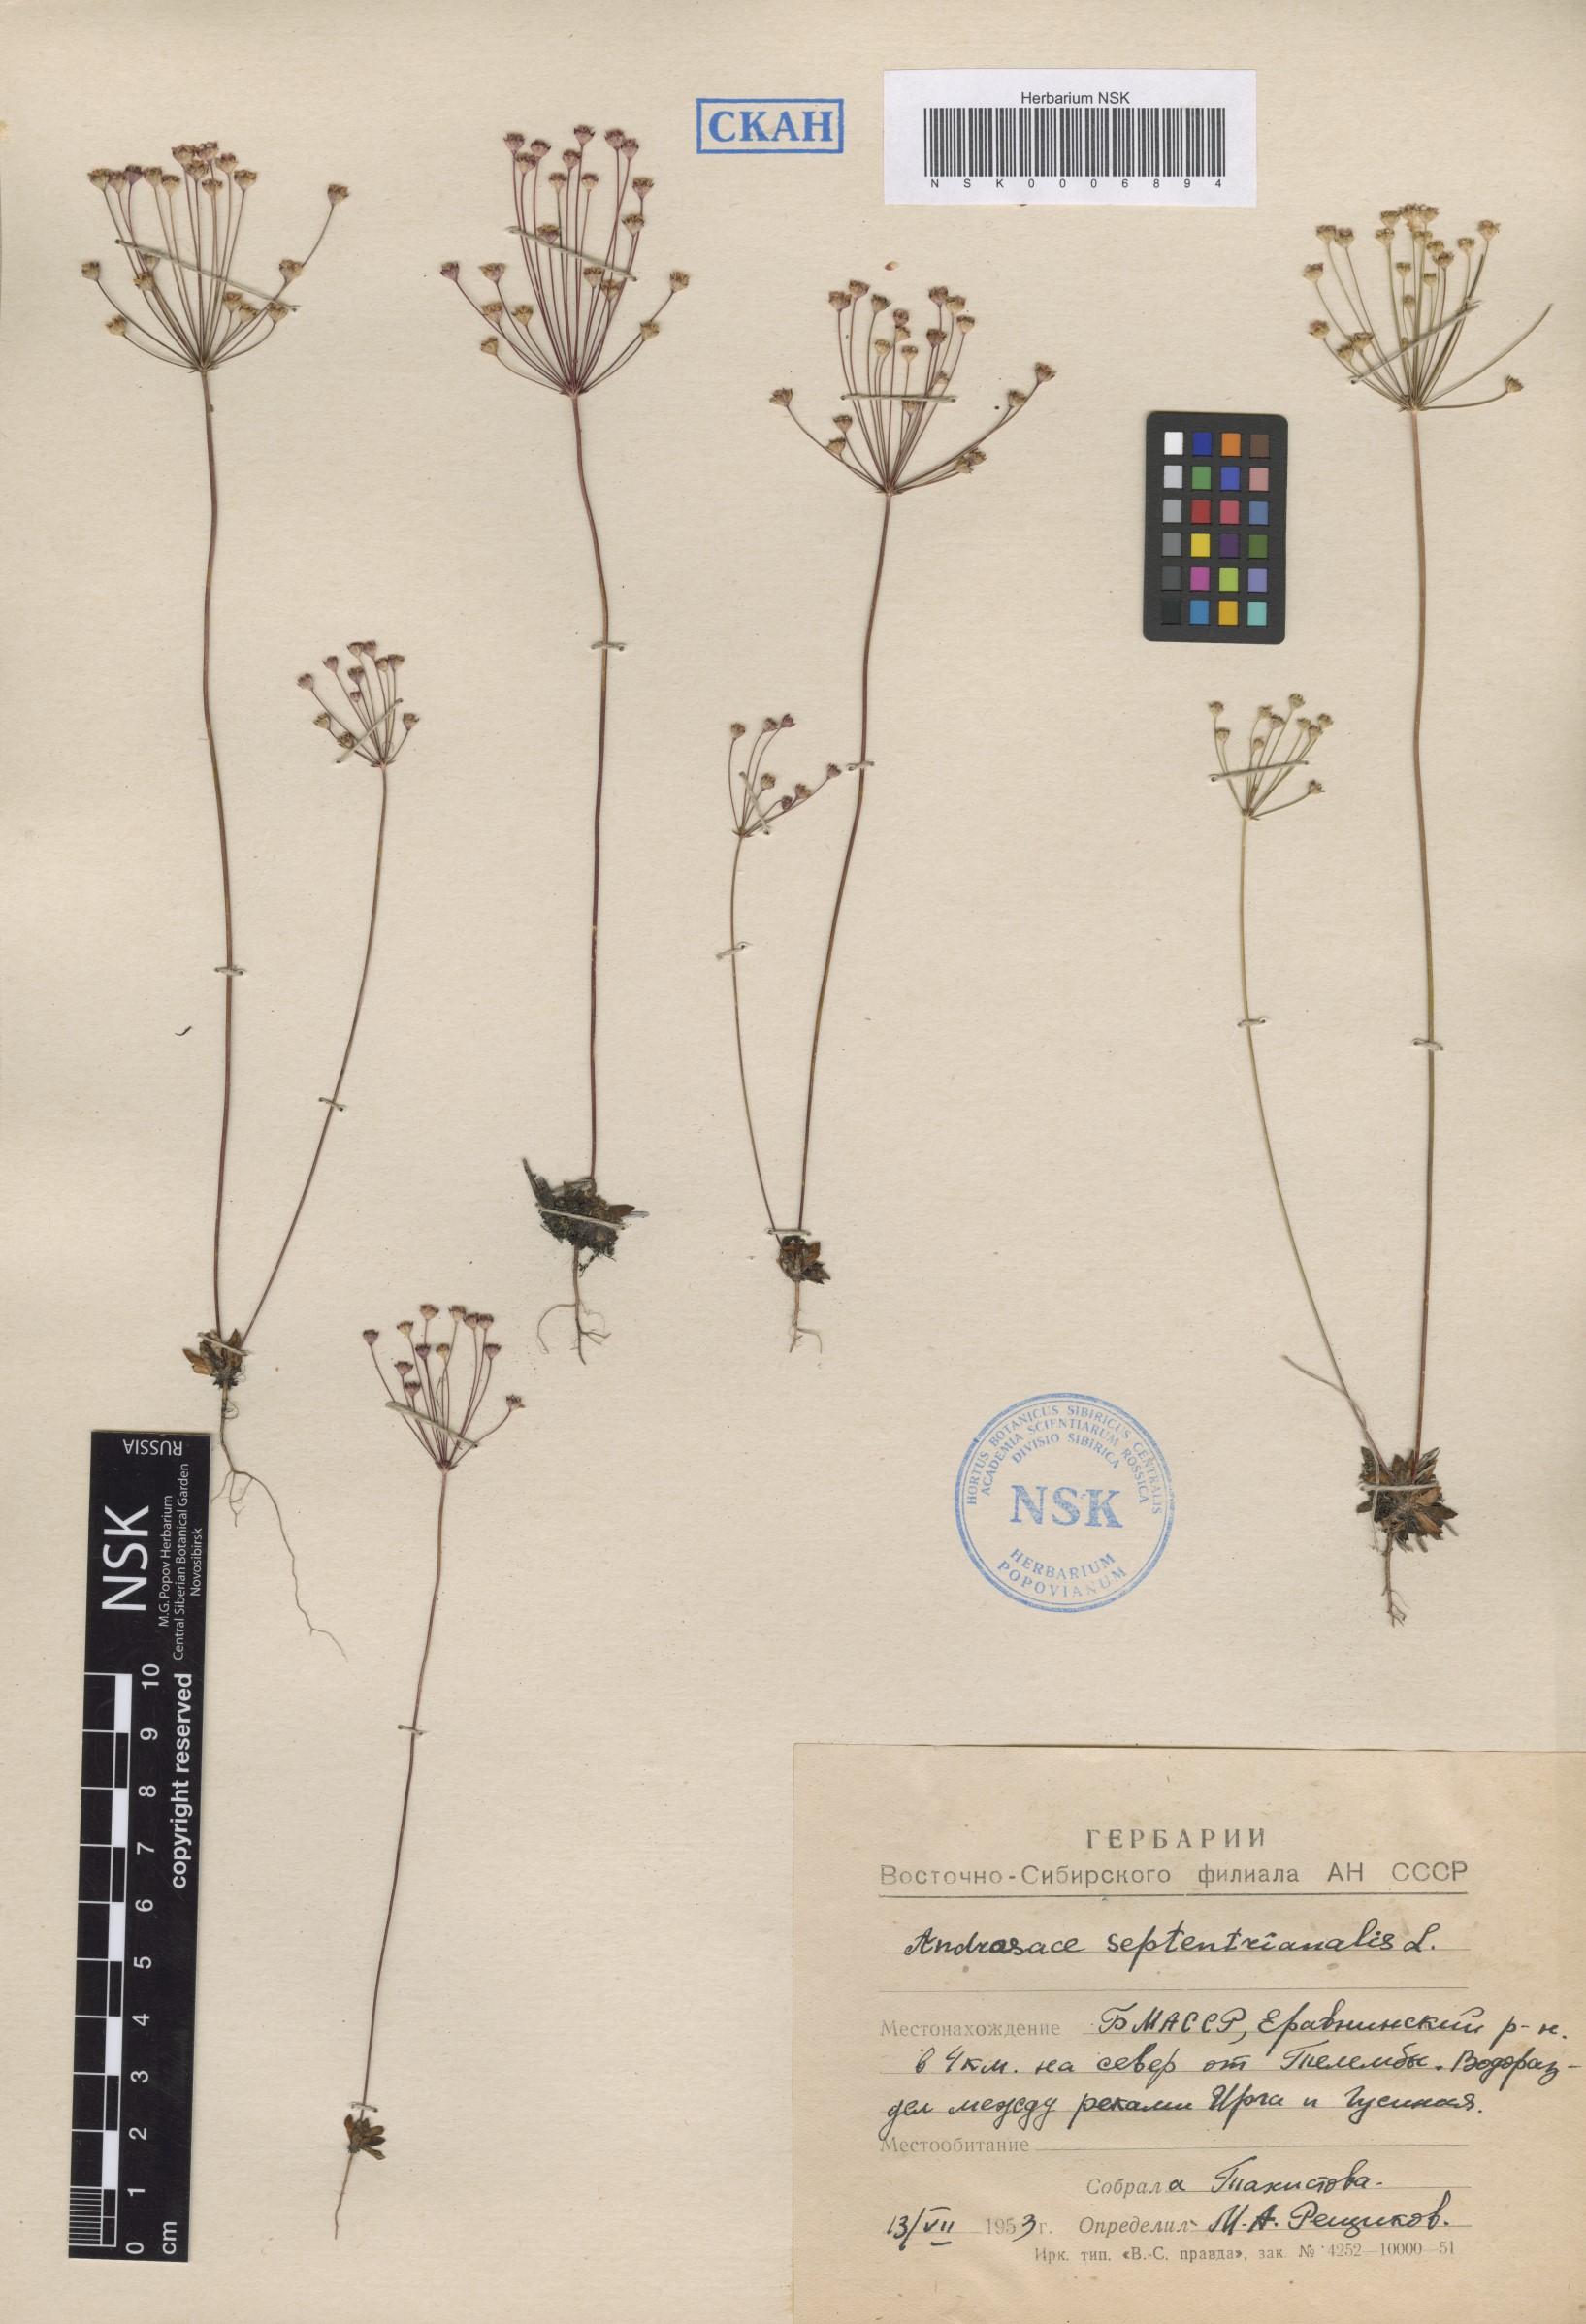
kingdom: Plantae
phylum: Tracheophyta
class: Magnoliopsida
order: Ericales
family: Primulaceae
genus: Androsace
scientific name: Androsace septentrionalis
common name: Hairy northern fairy-candelabra
